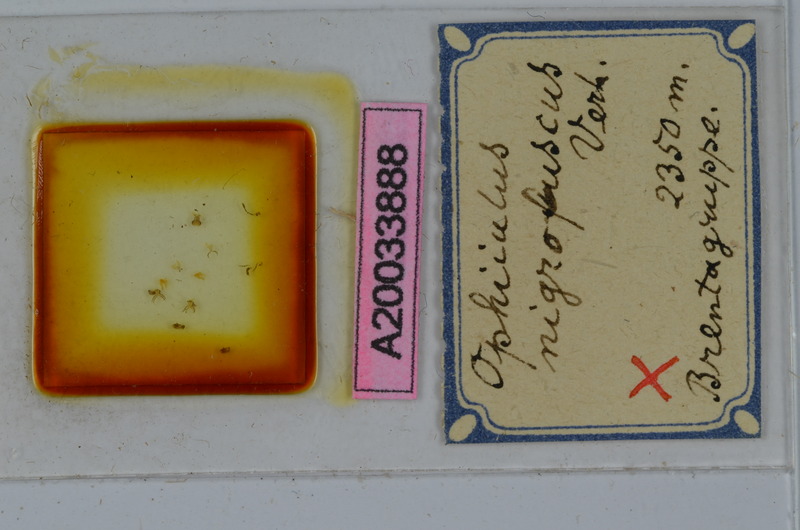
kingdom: Animalia
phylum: Arthropoda
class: Diplopoda
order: Julida
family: Julidae
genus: Ophyiulus
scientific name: Ophyiulus nigrofuscus
